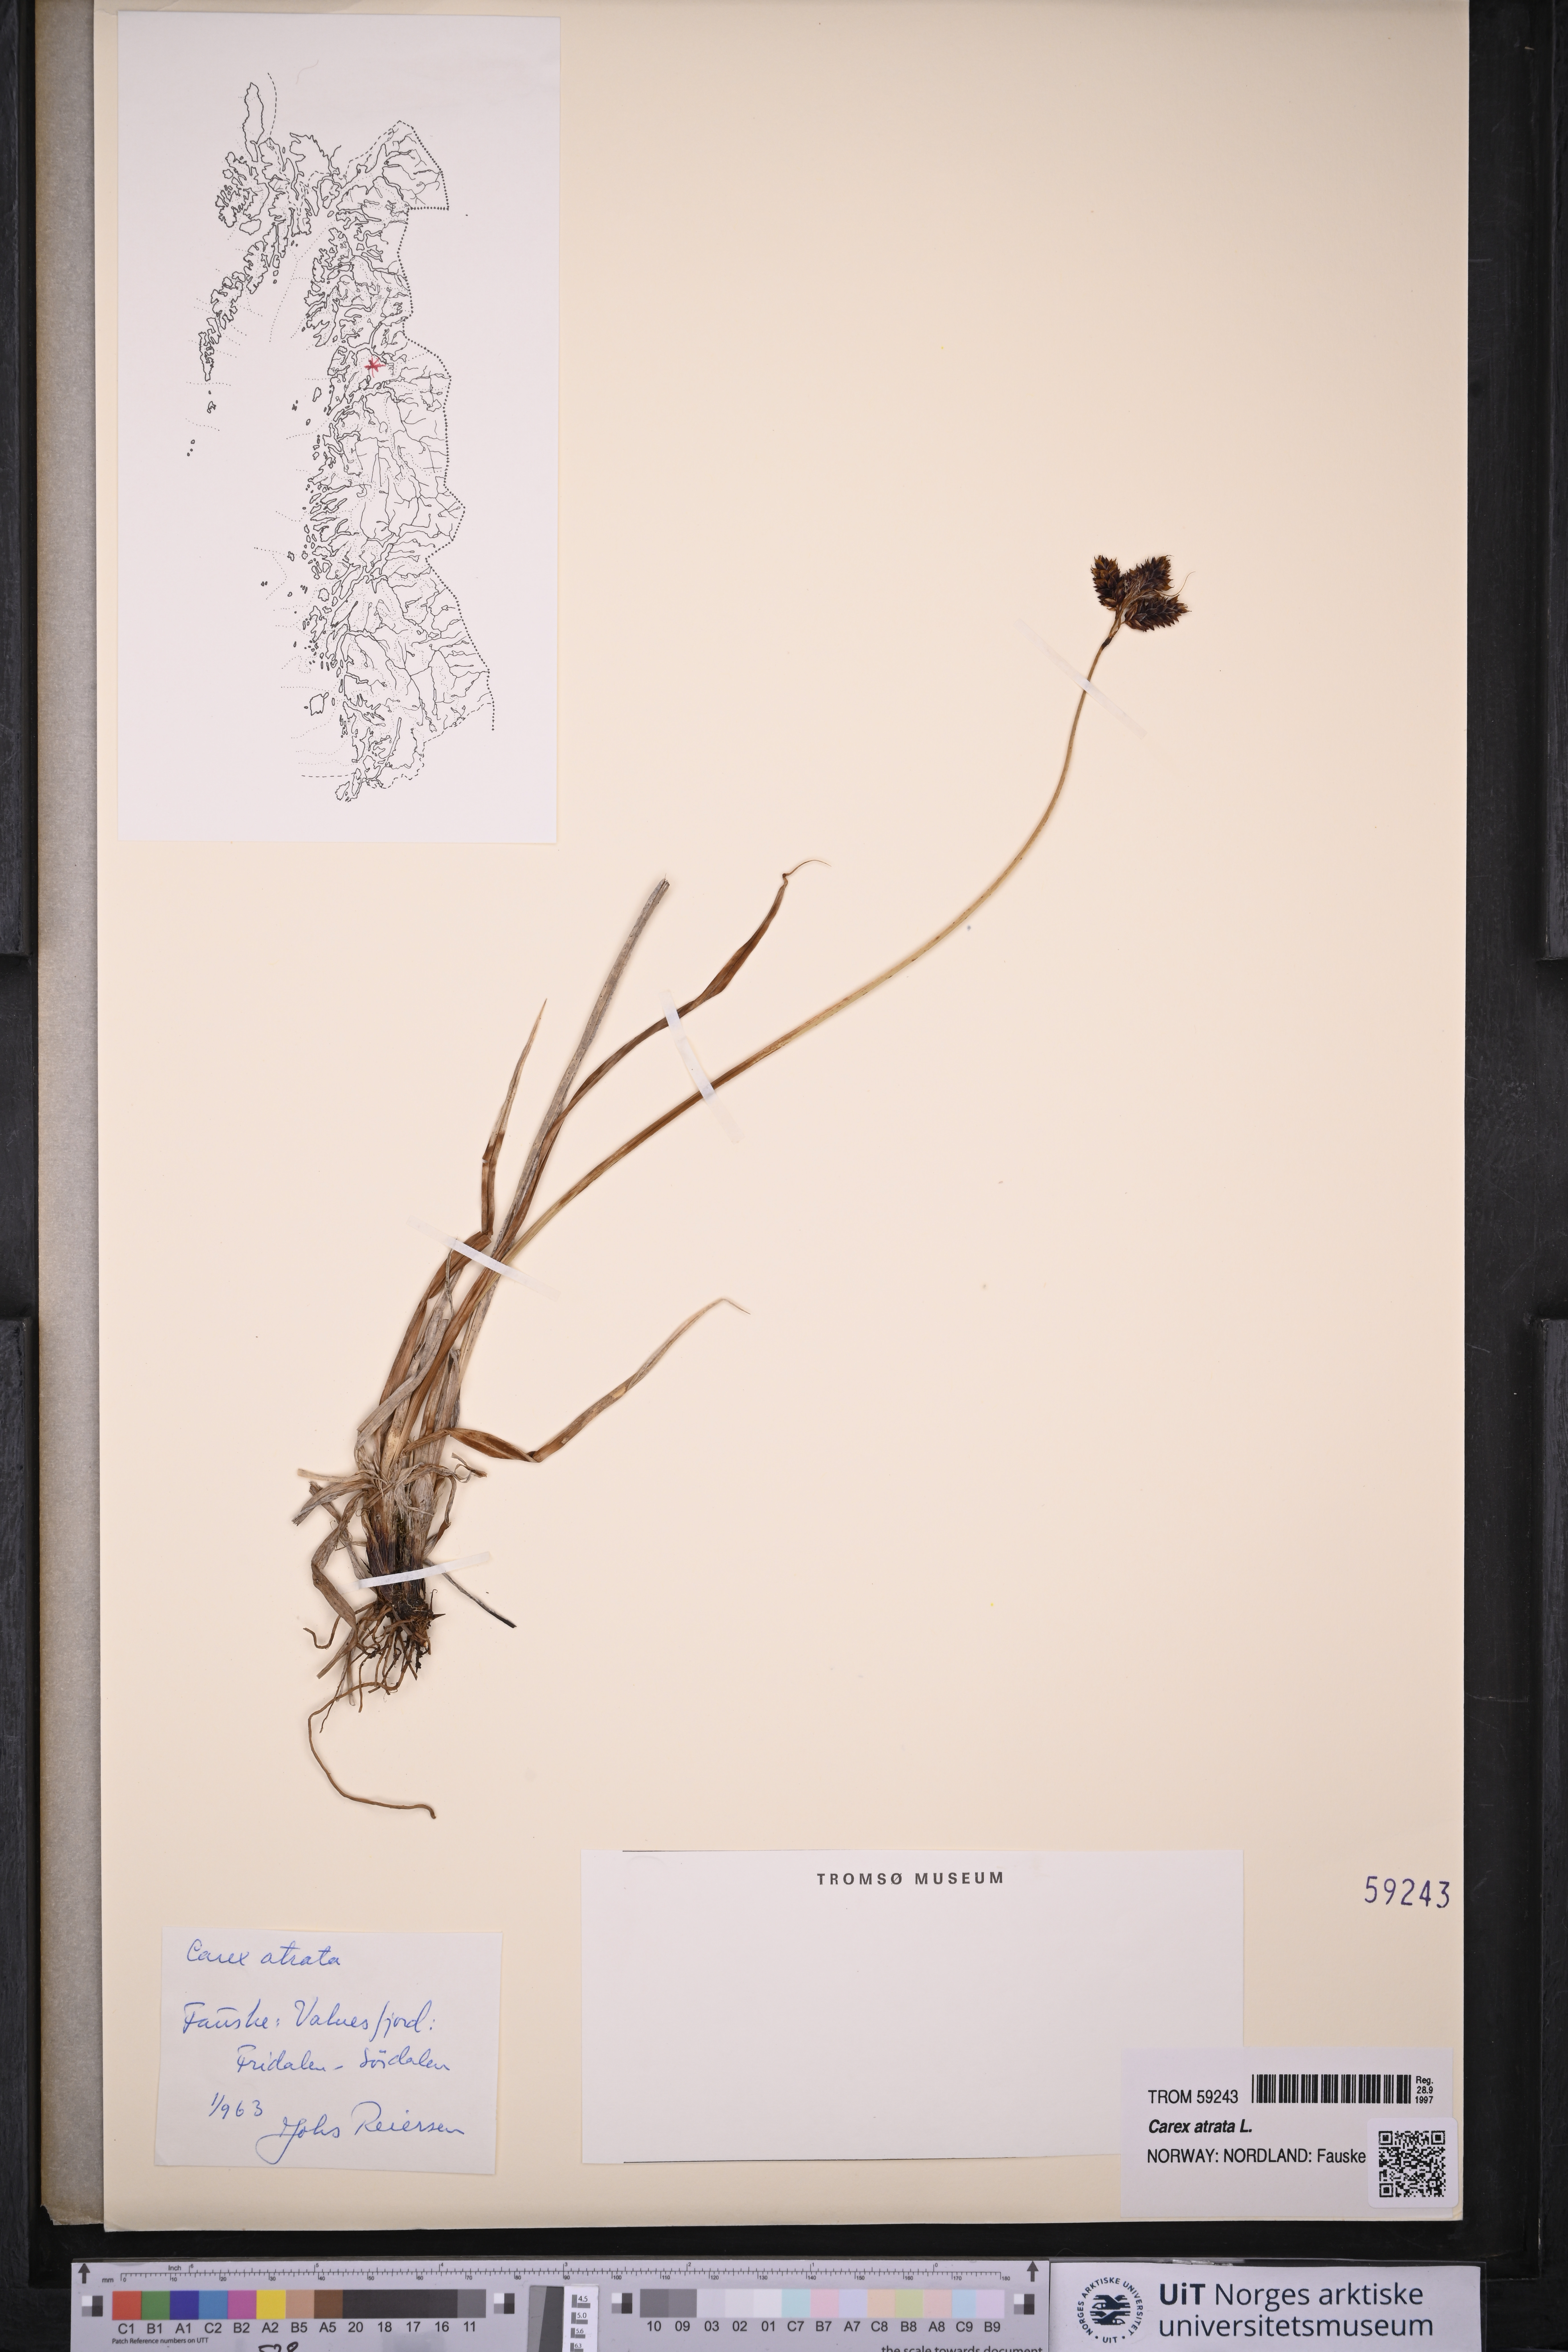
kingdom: Plantae
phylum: Tracheophyta
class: Liliopsida
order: Poales
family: Cyperaceae
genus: Carex
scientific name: Carex atrata
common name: Black alpine sedge
